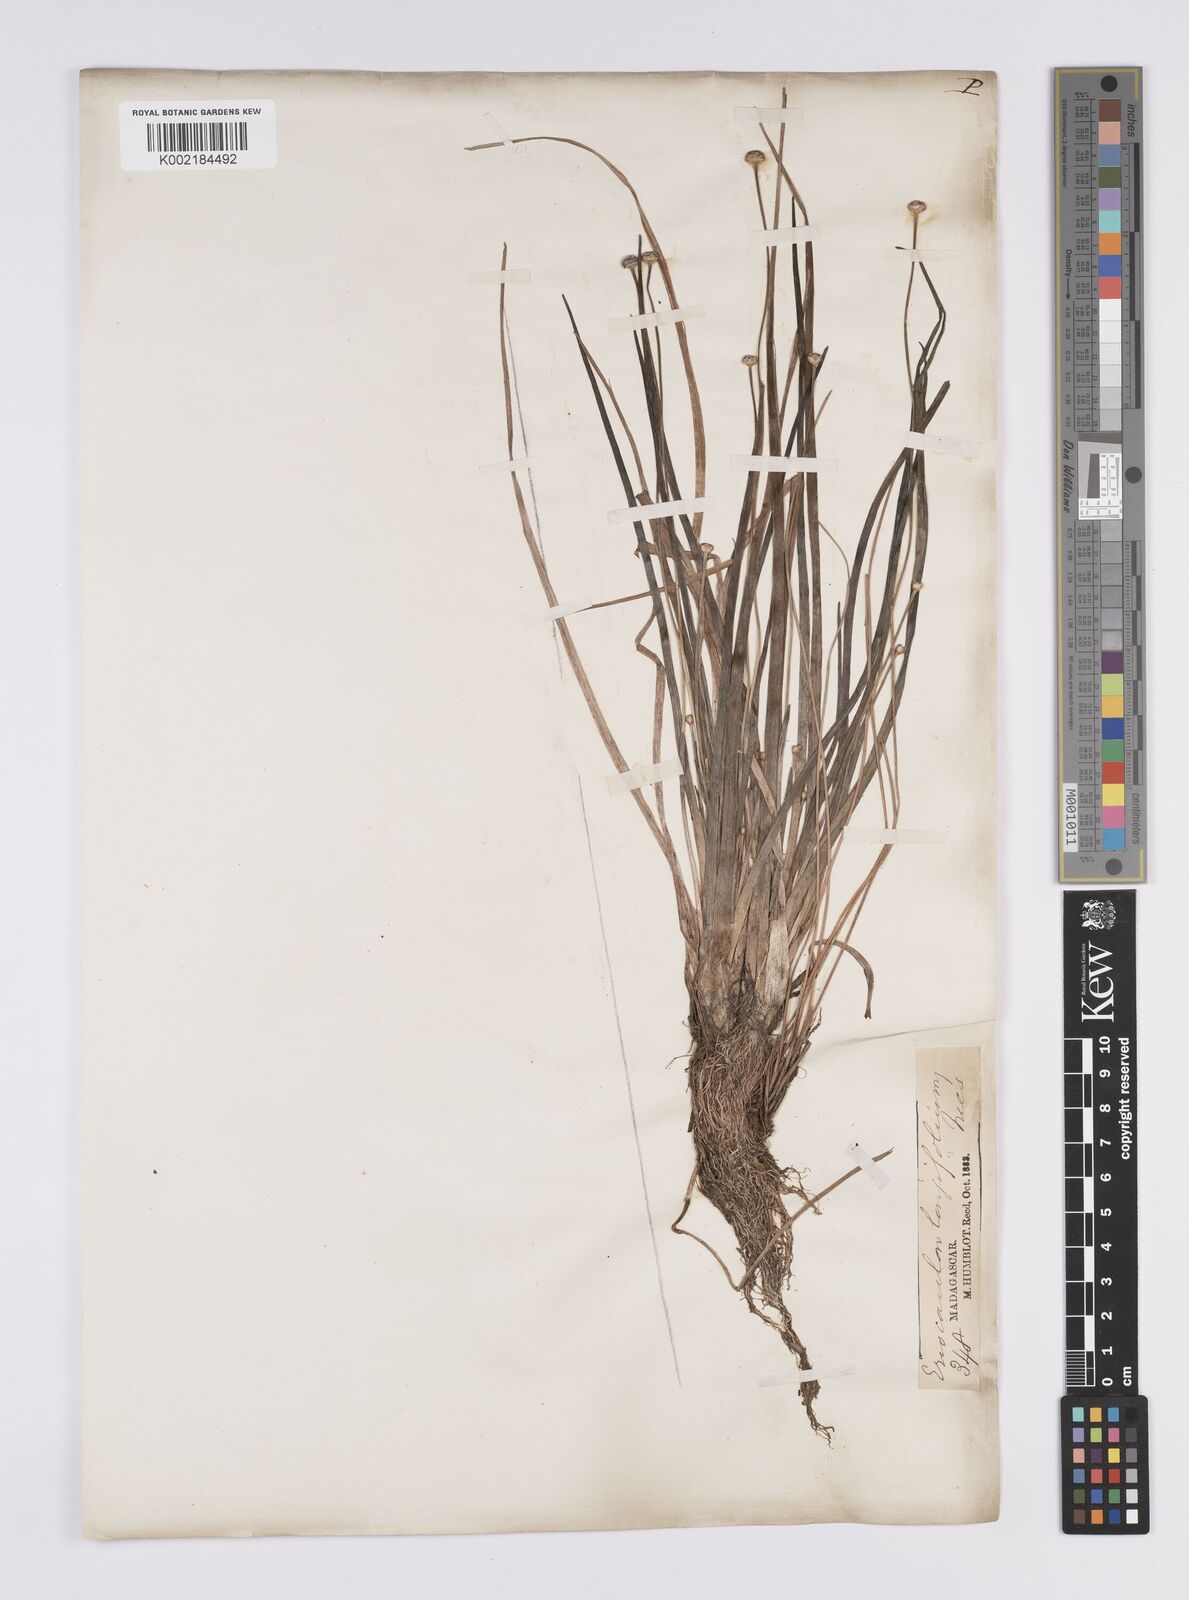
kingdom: Plantae
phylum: Tracheophyta
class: Liliopsida
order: Poales
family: Eriocaulaceae
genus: Eriocaulon
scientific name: Eriocaulon willdenovianum
